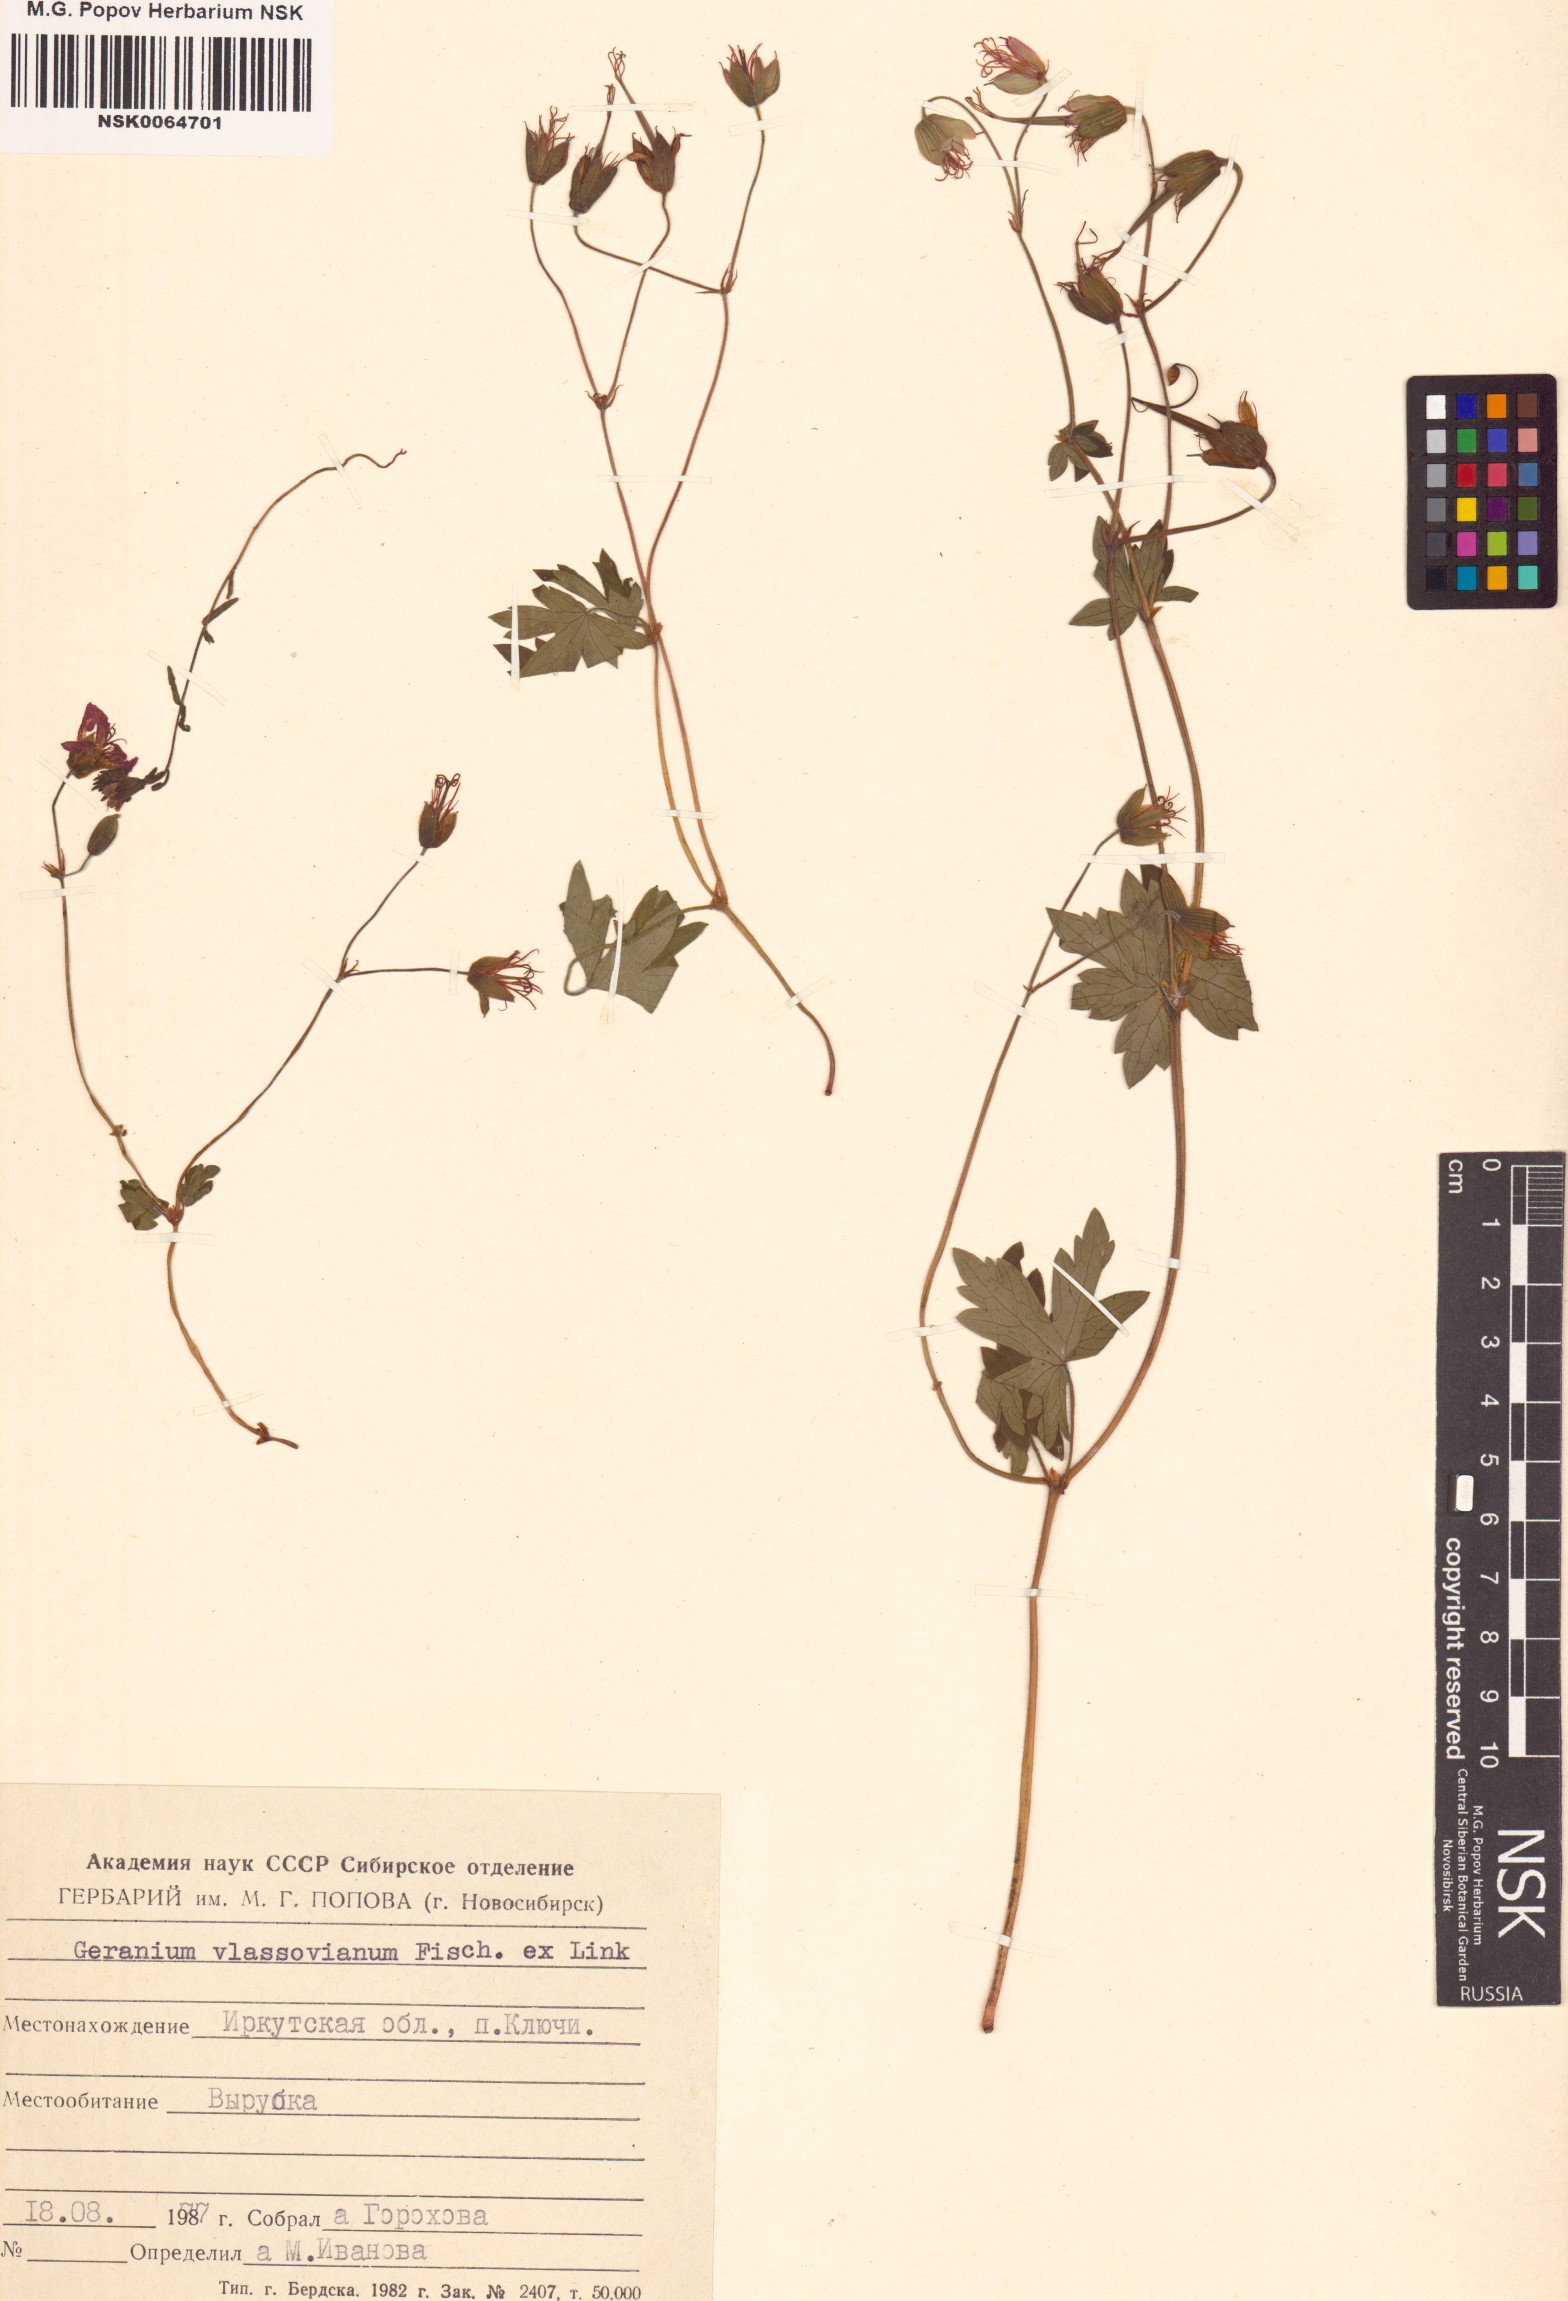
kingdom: Plantae
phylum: Tracheophyta
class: Magnoliopsida
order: Geraniales
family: Geraniaceae
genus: Geranium
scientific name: Geranium wlassovianum
